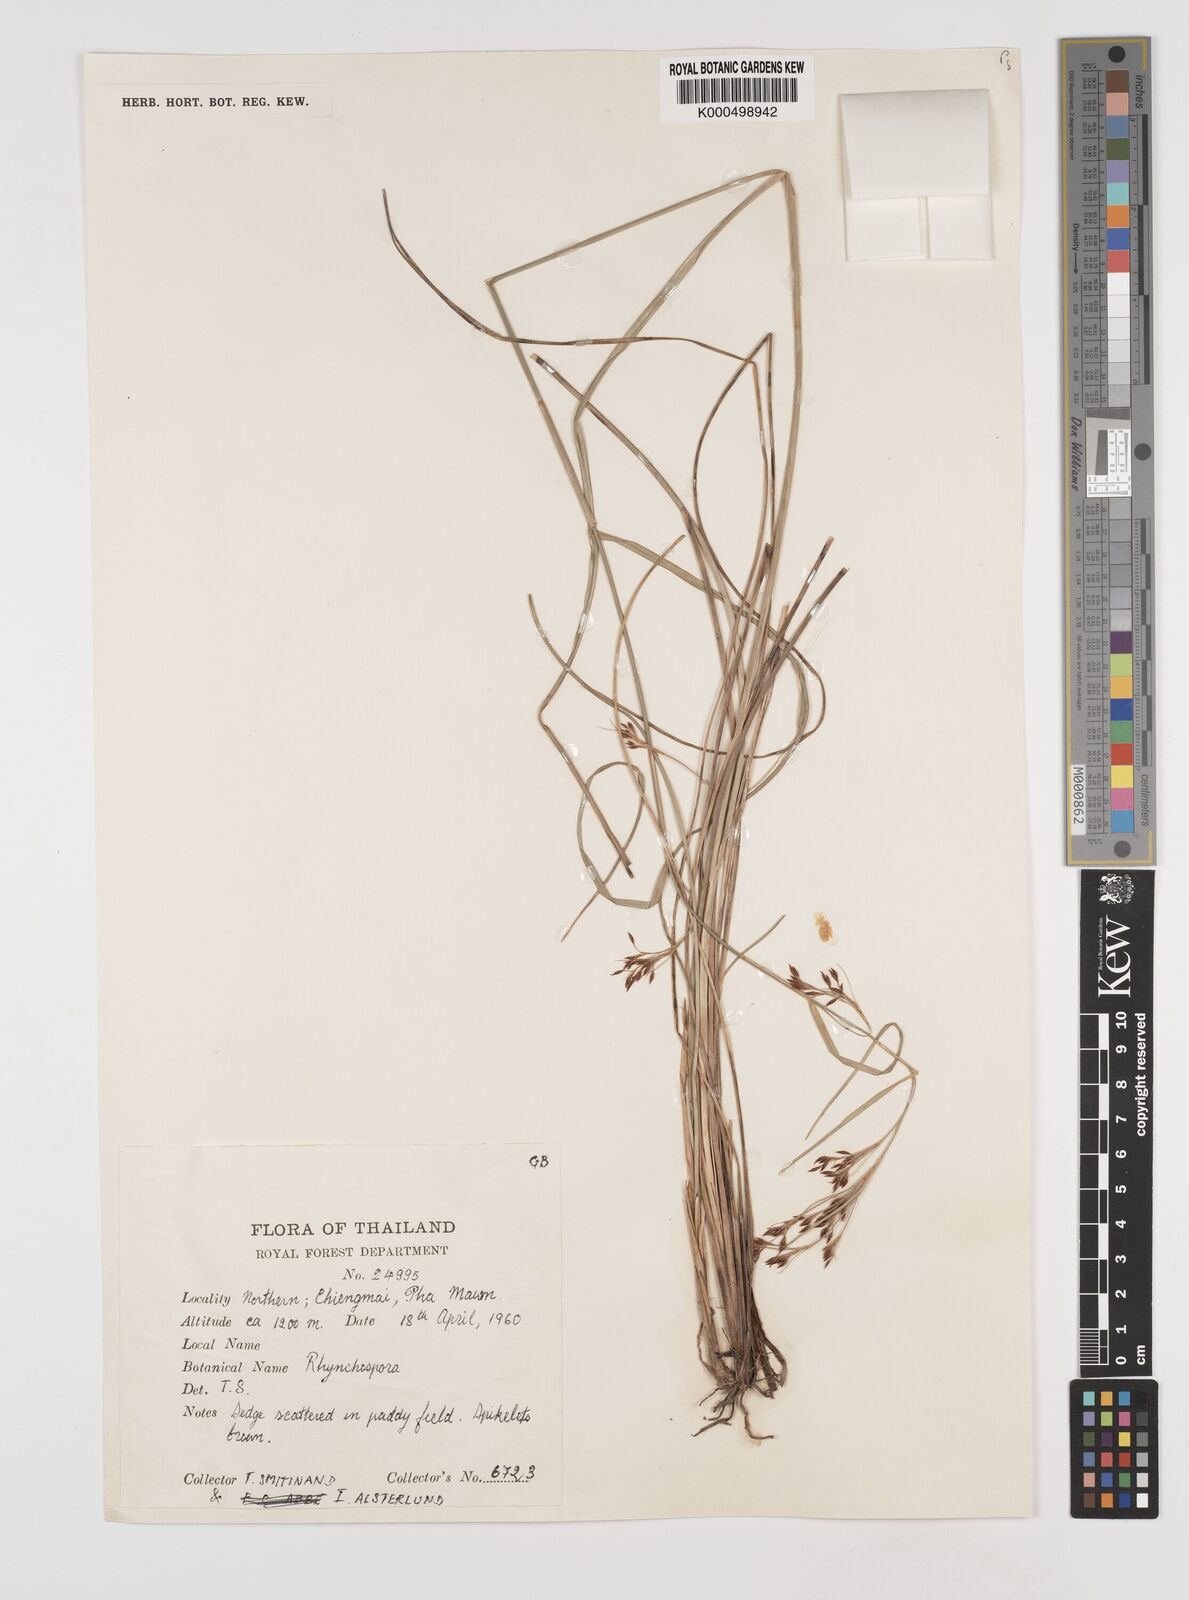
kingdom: Plantae
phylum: Tracheophyta
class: Liliopsida
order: Poales
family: Cyperaceae
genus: Rhynchospora
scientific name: Rhynchospora rugosa
